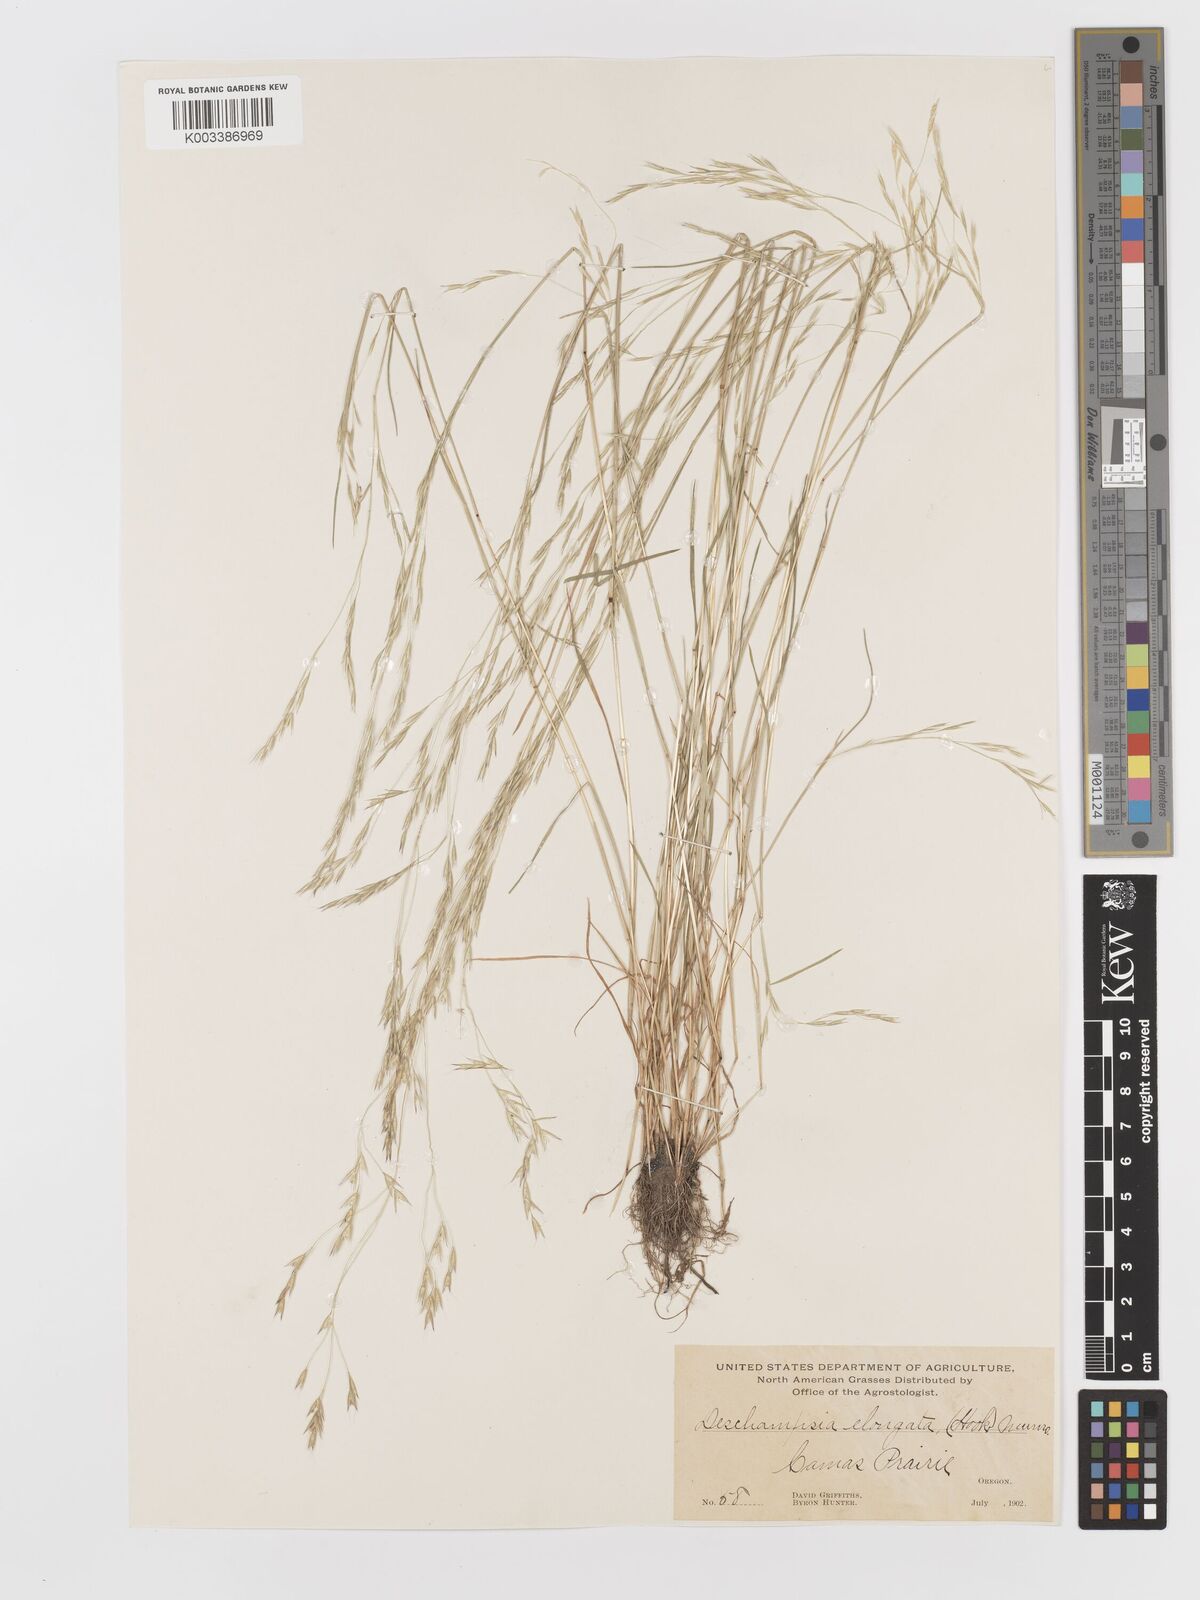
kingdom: Plantae
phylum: Tracheophyta
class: Liliopsida
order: Poales
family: Poaceae
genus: Deschampsia
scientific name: Deschampsia elongata
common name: Slender hairgrass
